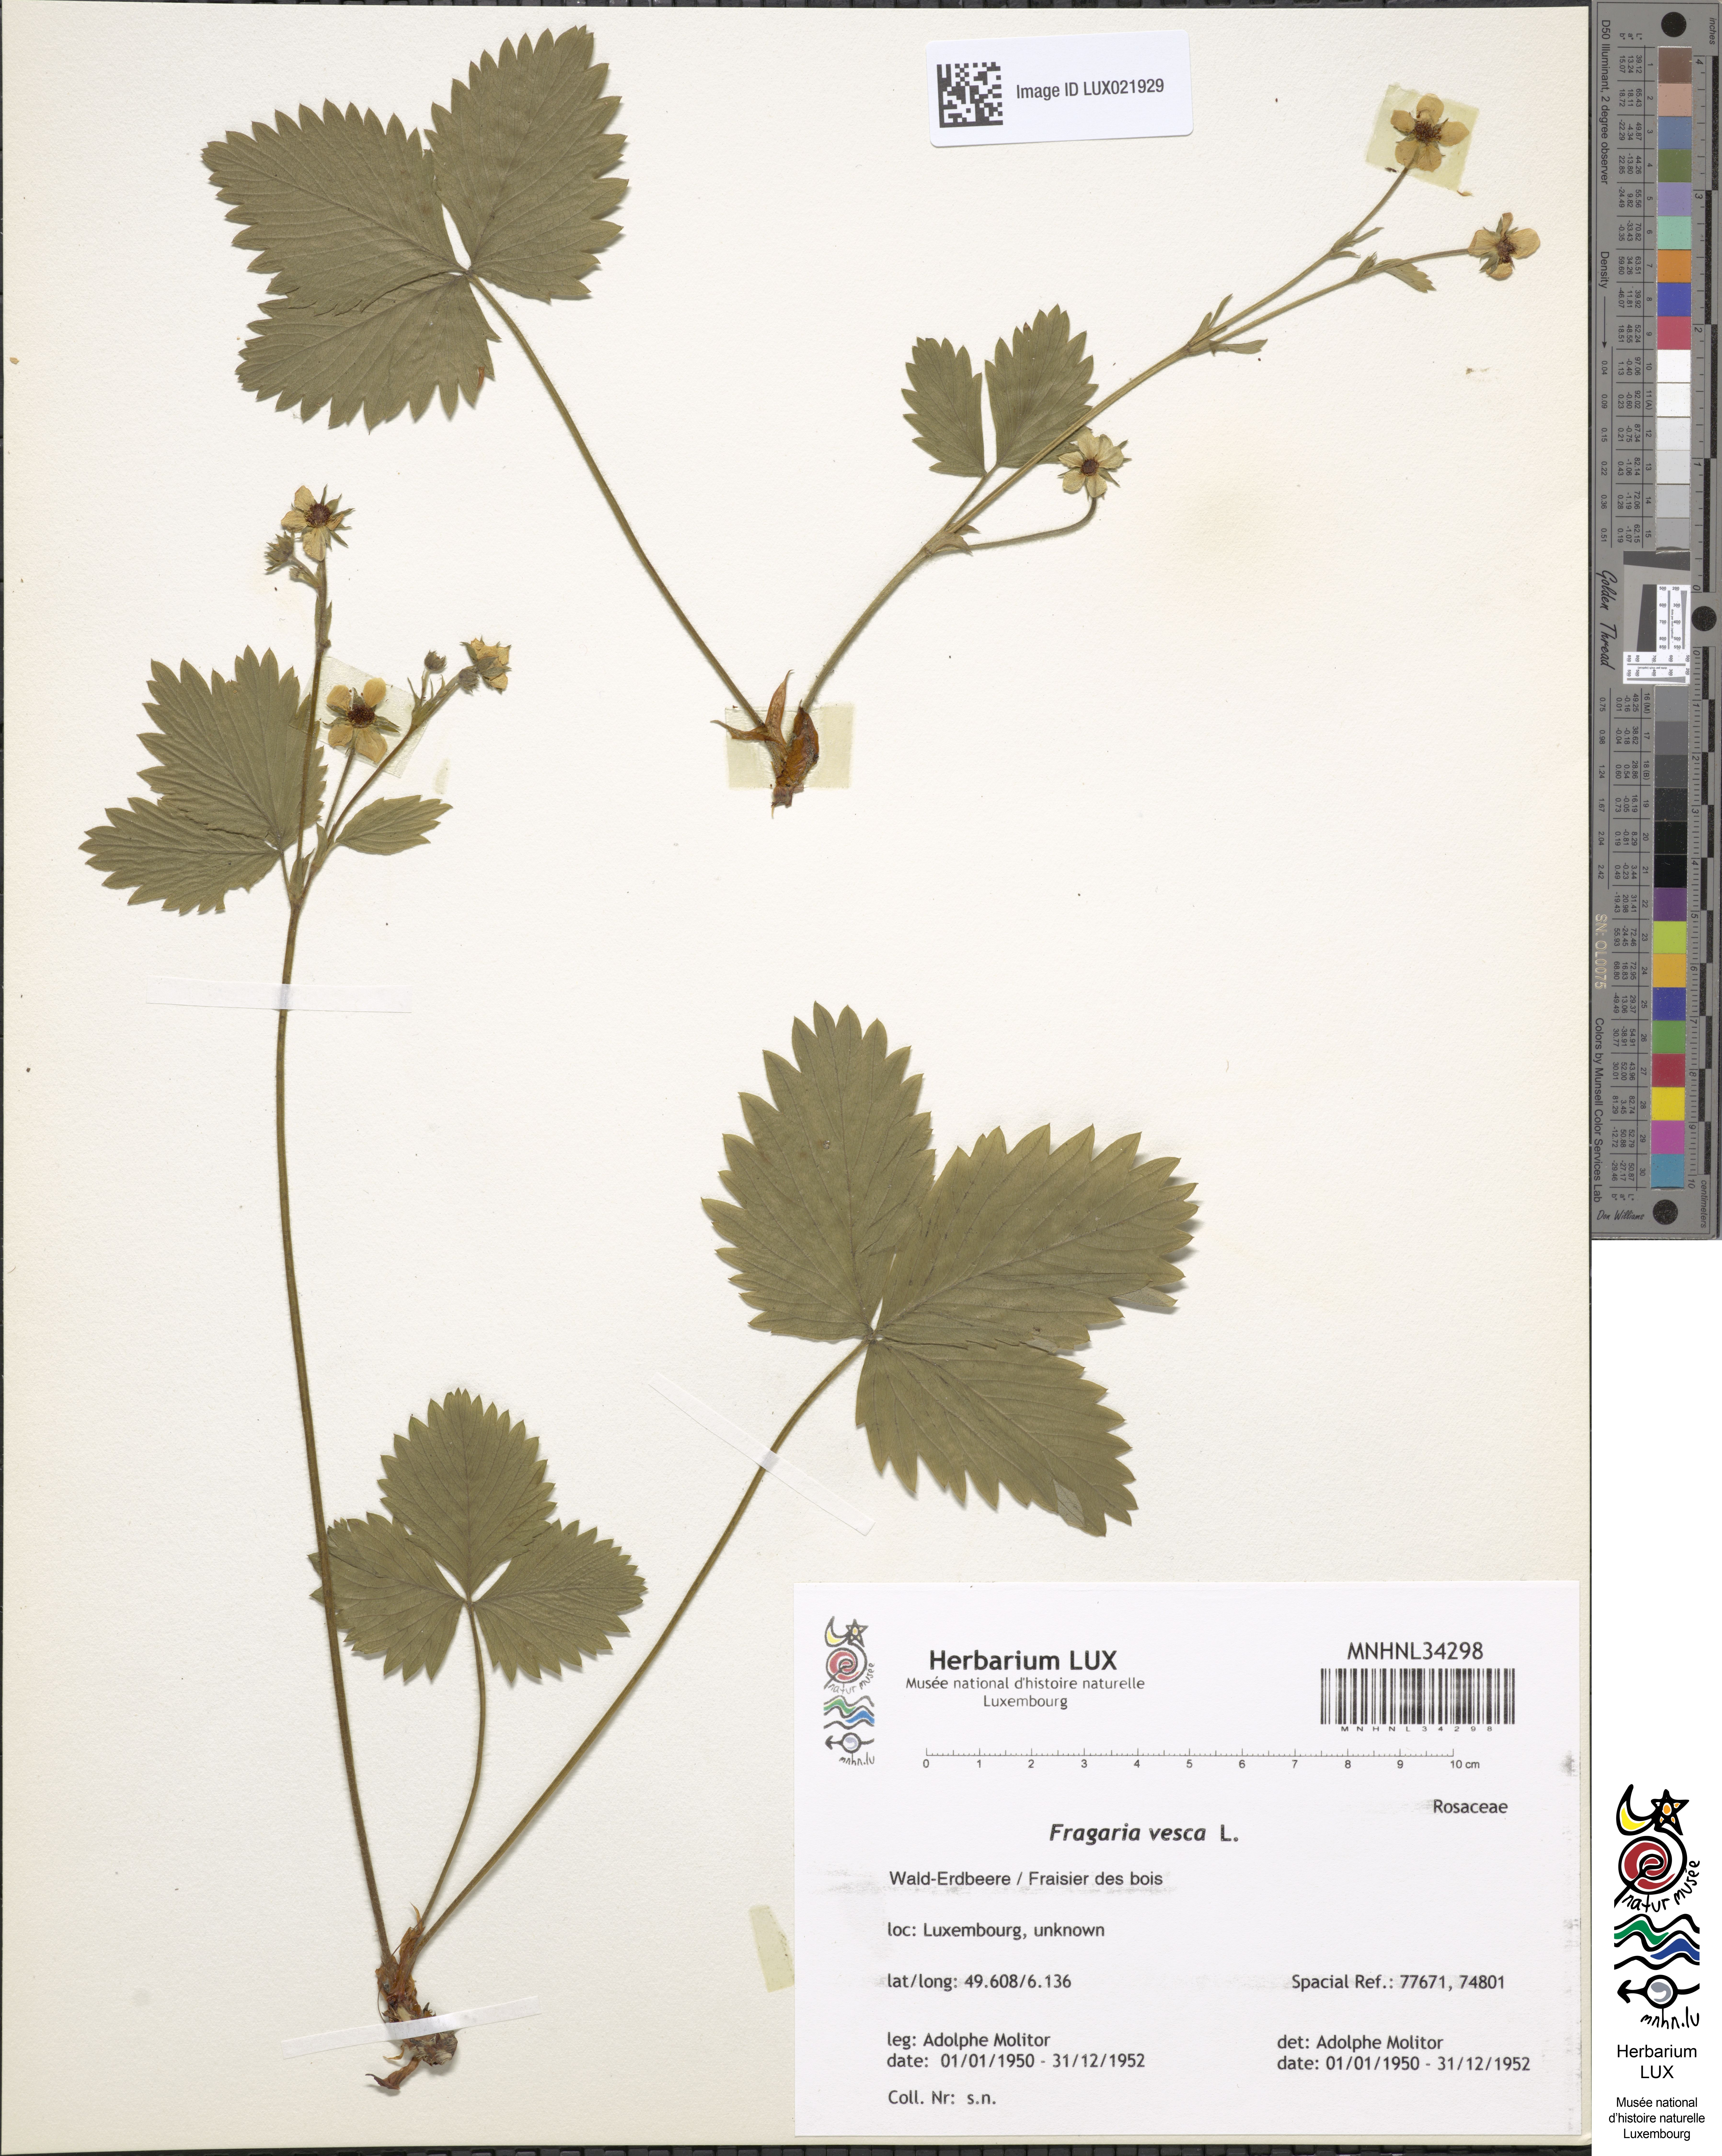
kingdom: Plantae
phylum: Tracheophyta
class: Magnoliopsida
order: Rosales
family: Rosaceae
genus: Fragaria
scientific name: Fragaria vesca
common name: Wild strawberry
